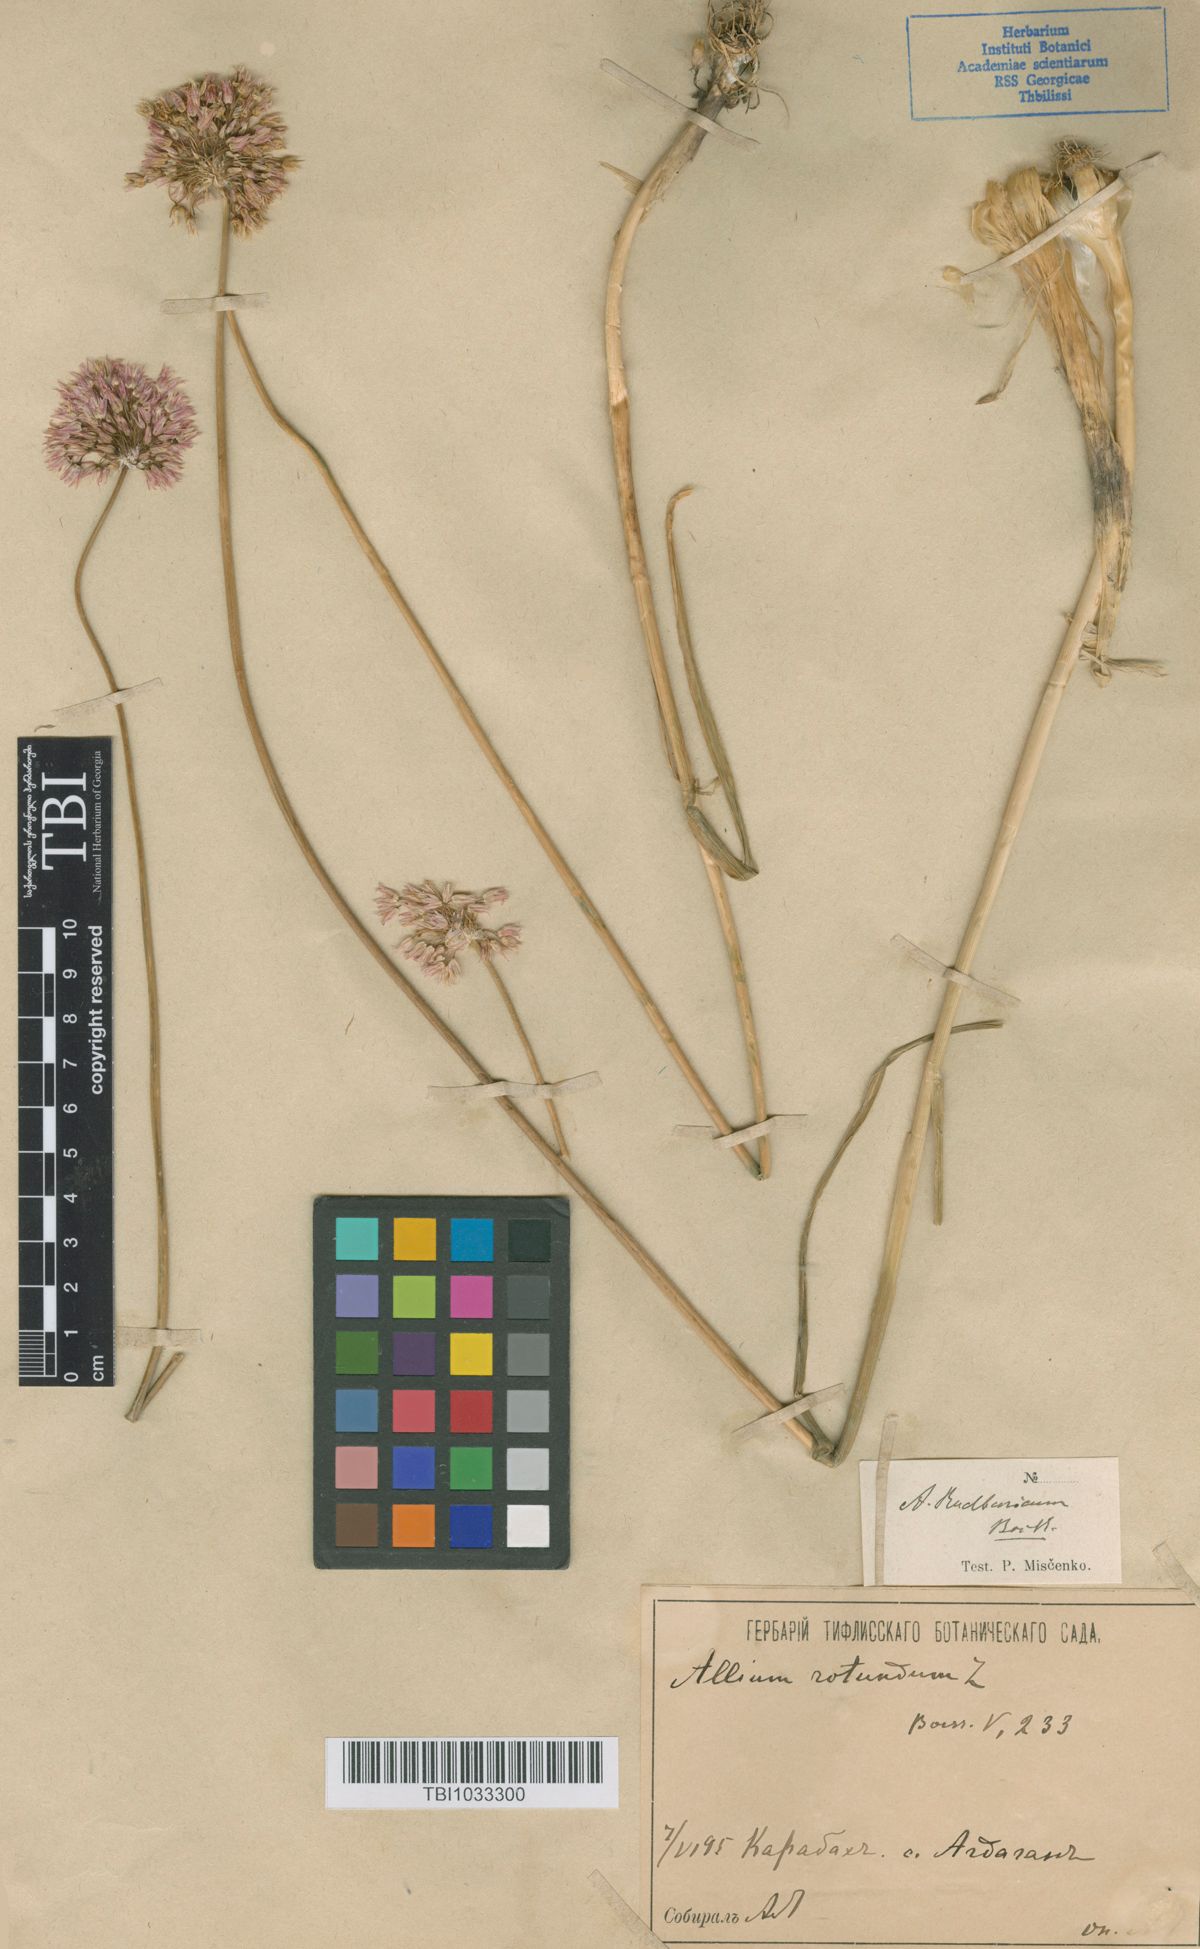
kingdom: Plantae
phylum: Tracheophyta
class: Liliopsida
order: Asparagales
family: Amaryllidaceae
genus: Allium
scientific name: Allium erubescens
